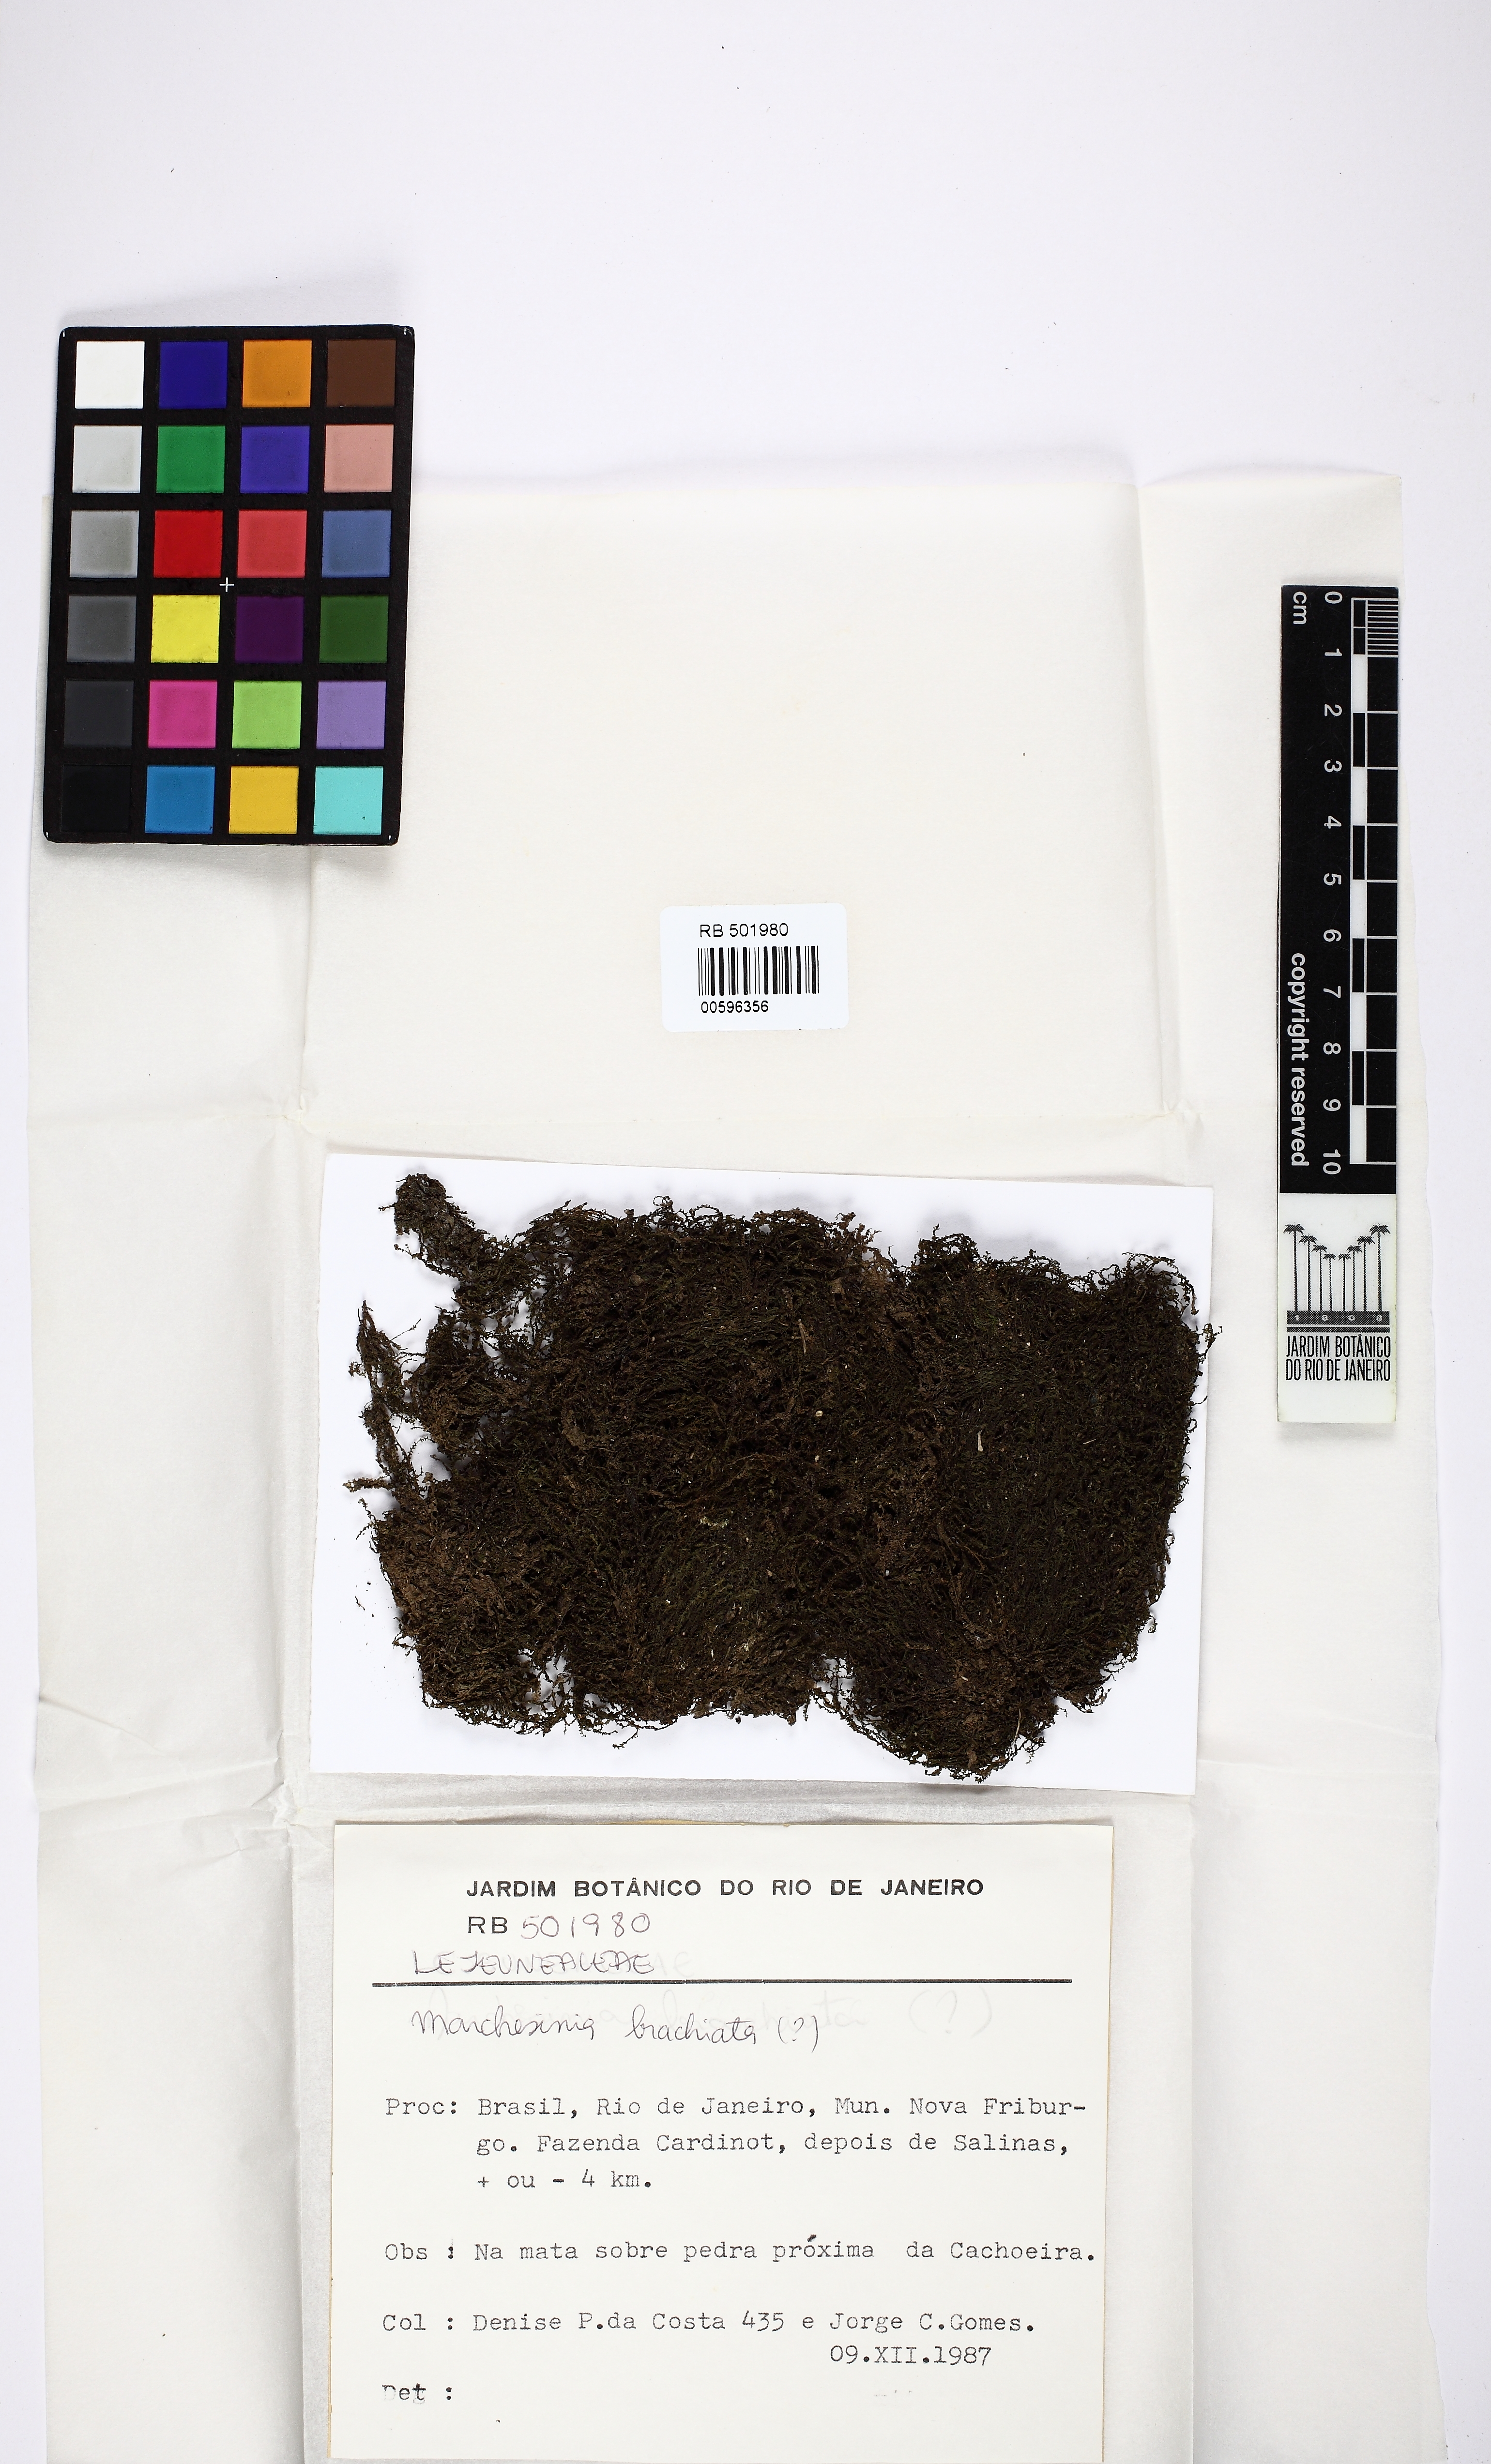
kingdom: Plantae
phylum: Marchantiophyta
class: Jungermanniopsida
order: Porellales
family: Lejeuneaceae
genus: Marchesinia
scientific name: Marchesinia brachiata
